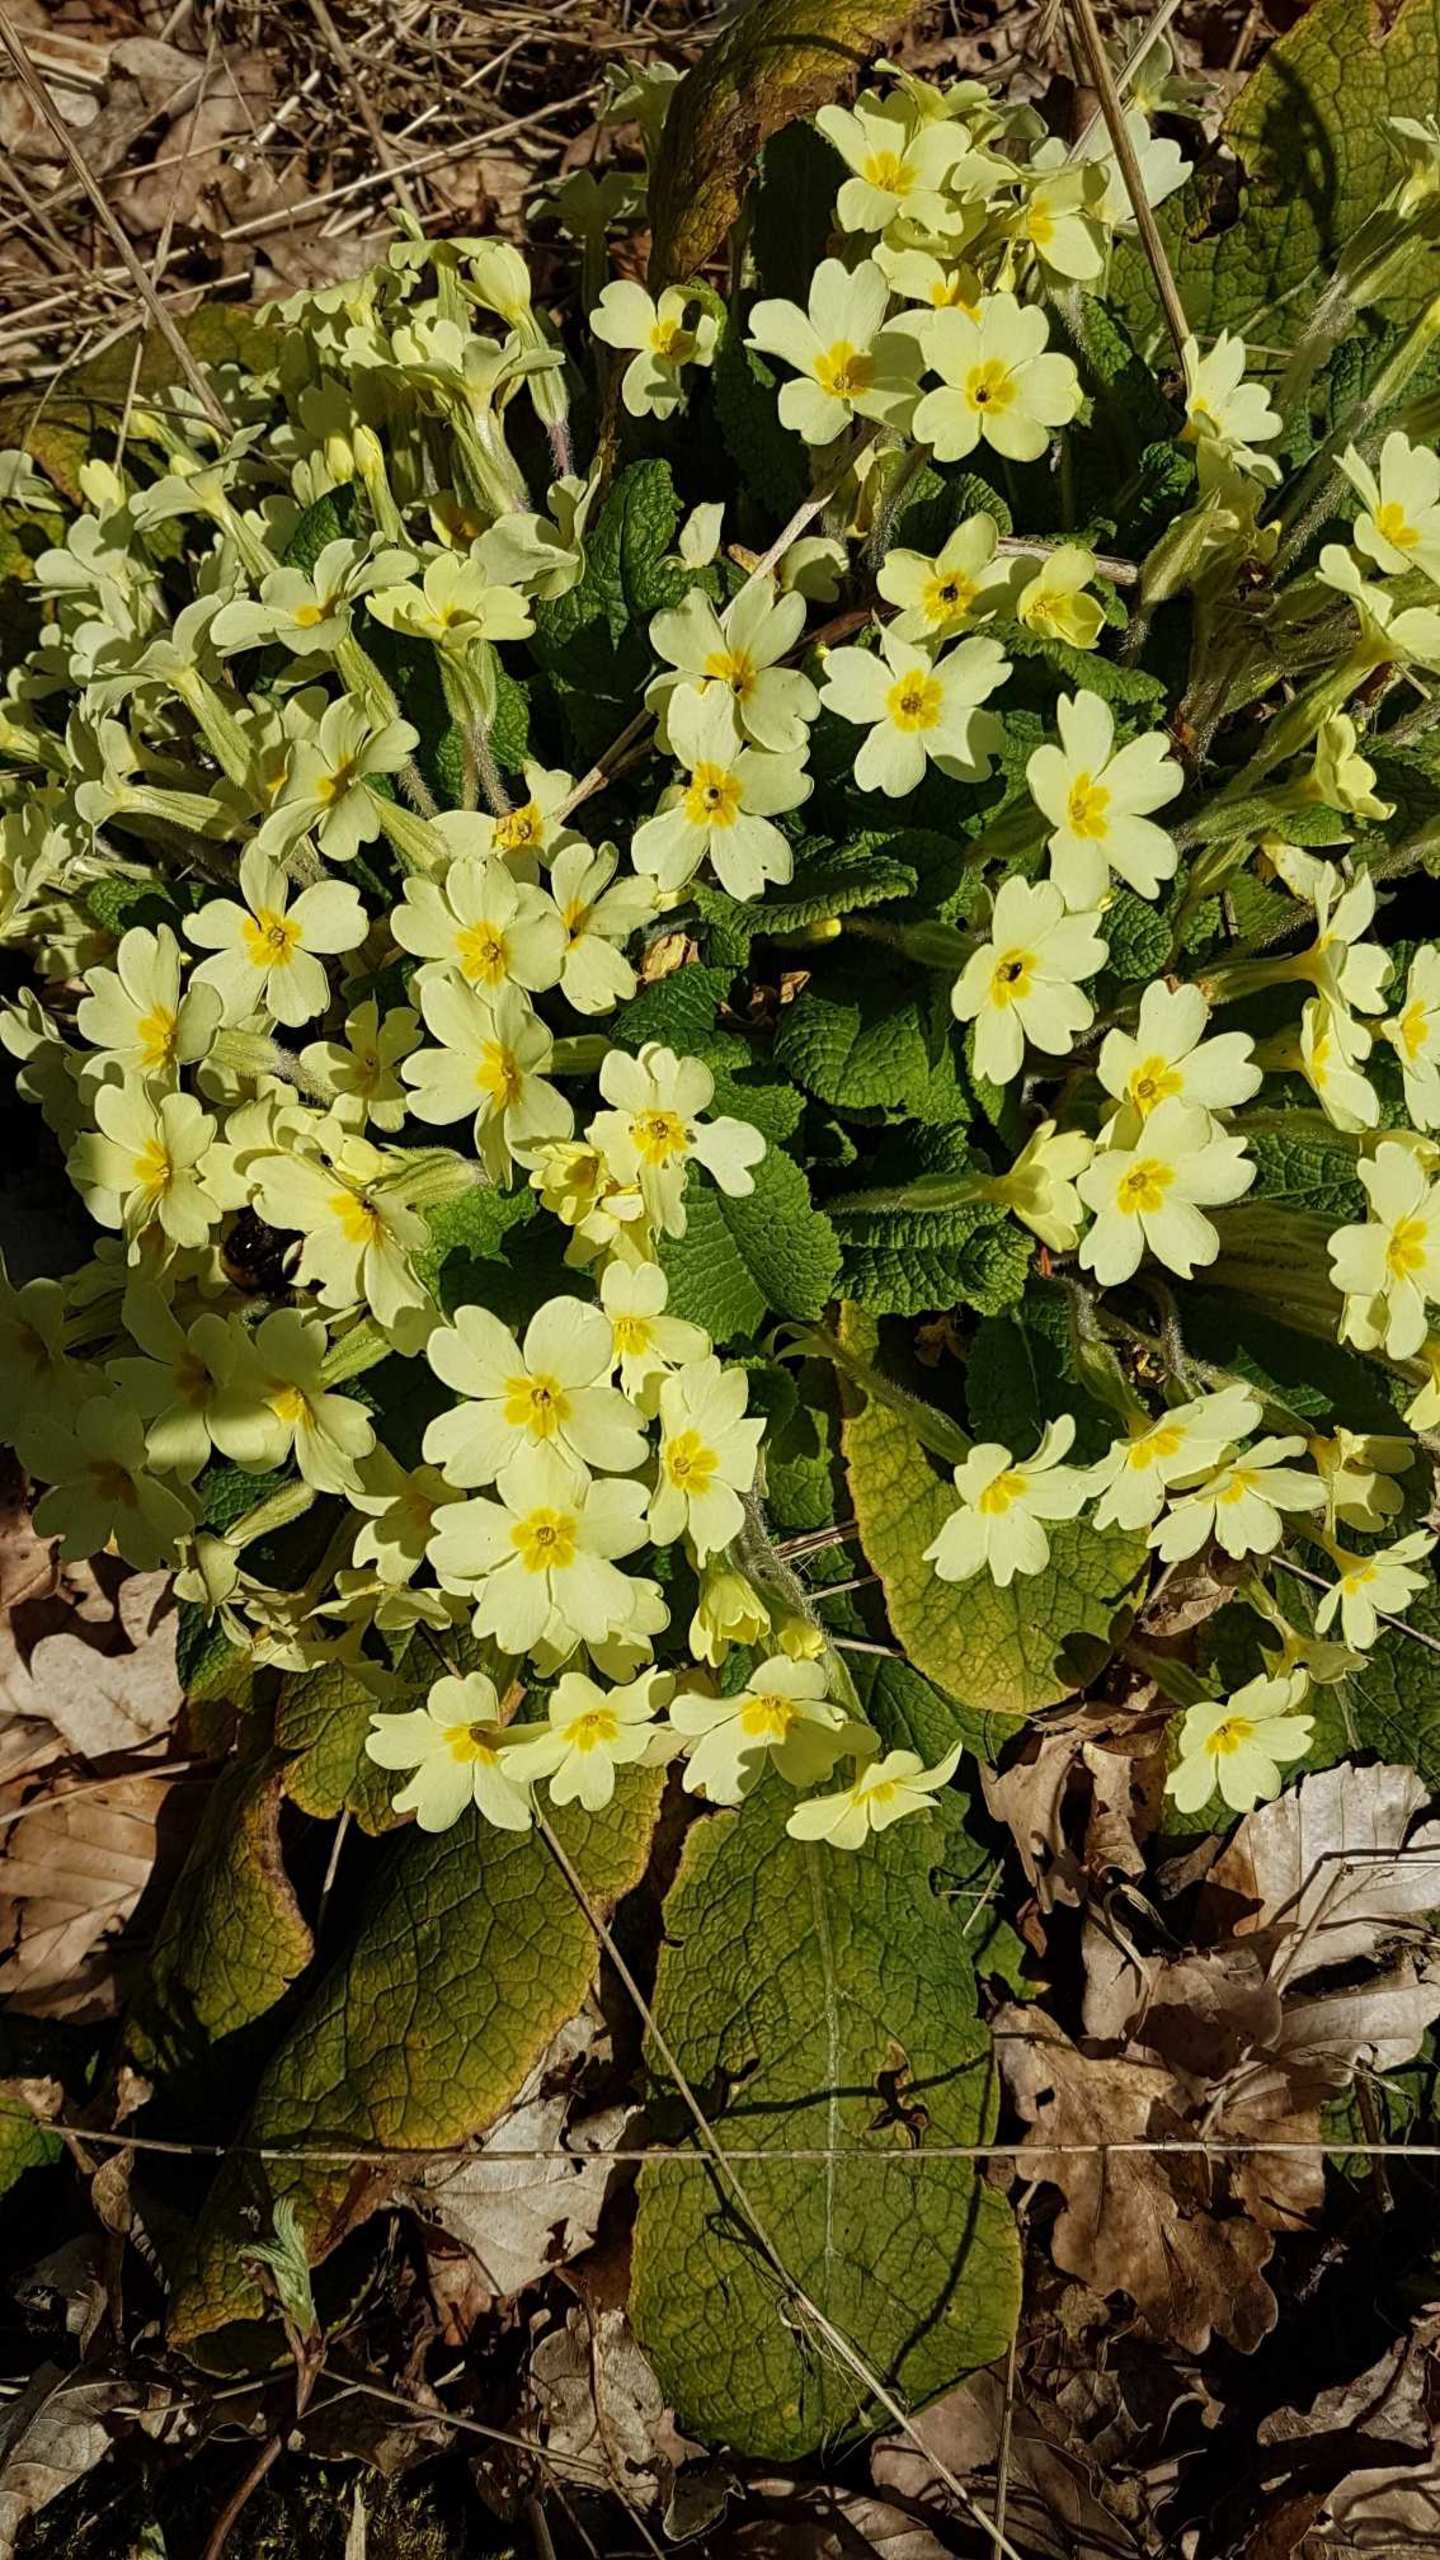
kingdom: Plantae
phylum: Tracheophyta
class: Magnoliopsida
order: Ericales
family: Primulaceae
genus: Primula
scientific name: Primula vulgaris
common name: Storblomstret kodriver
